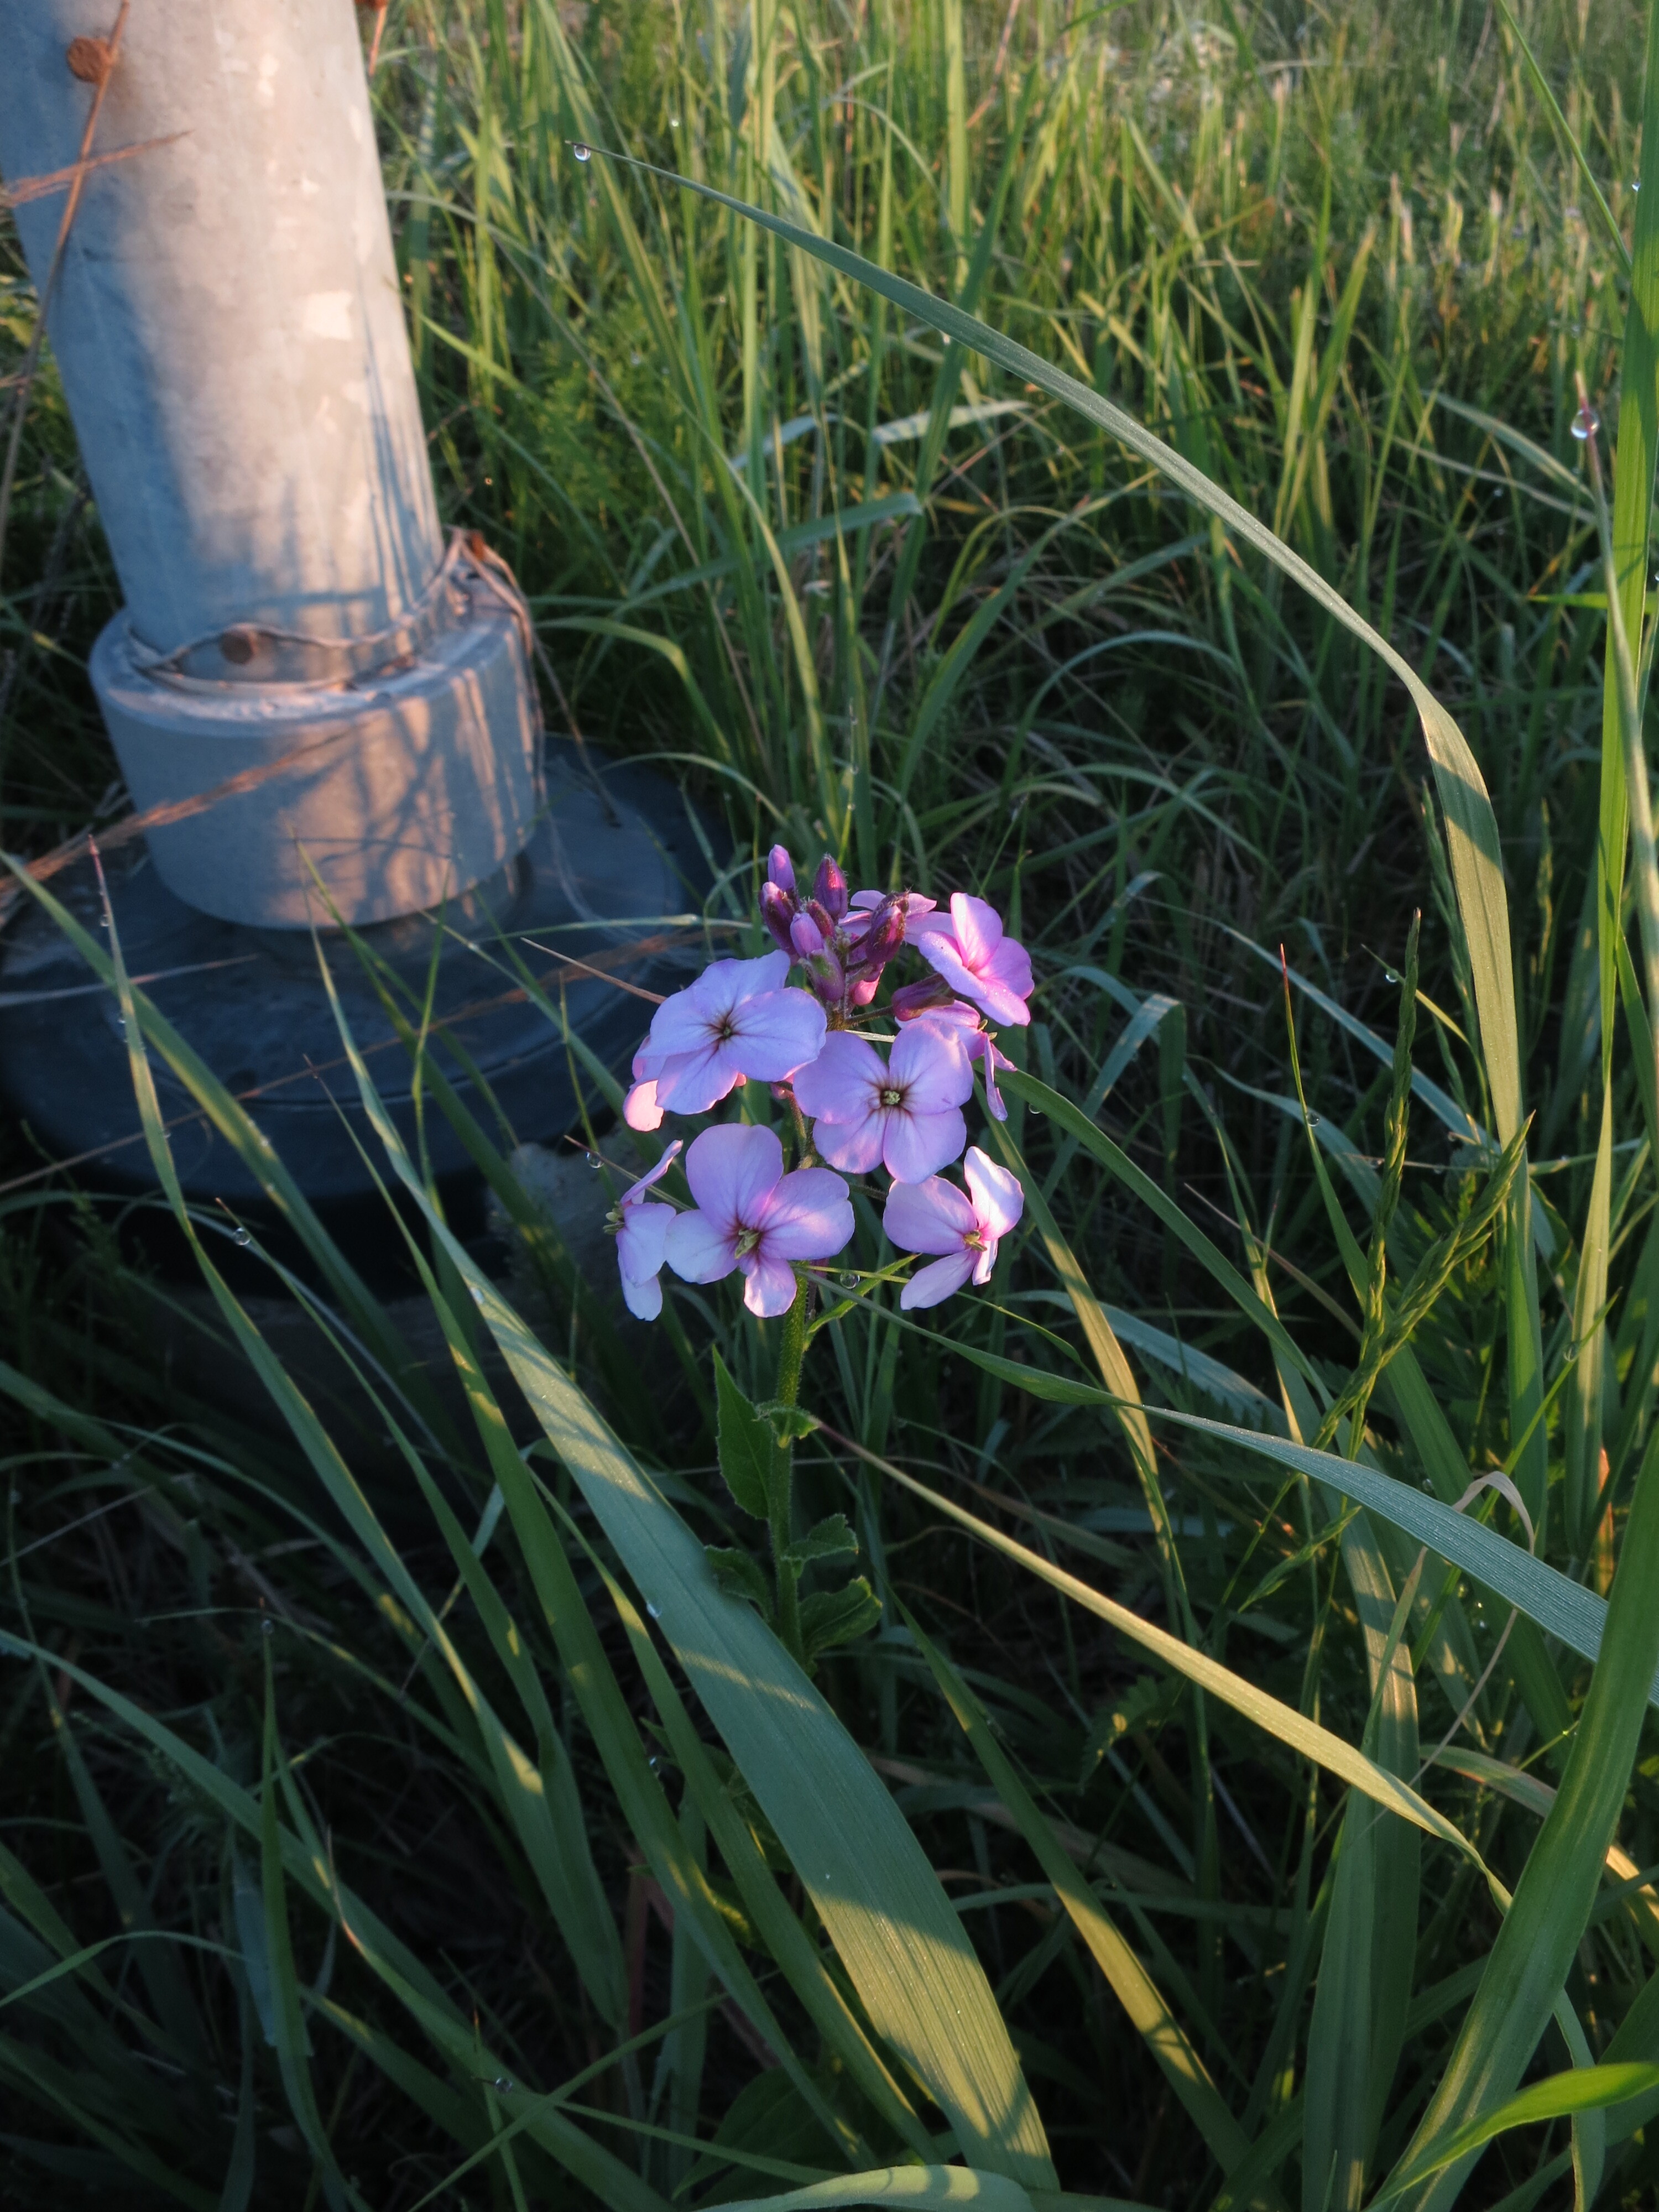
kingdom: Plantae
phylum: Tracheophyta
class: Magnoliopsida
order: Brassicales
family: Brassicaceae
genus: Hesperis
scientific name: Hesperis matronalis
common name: Dame's-violet
